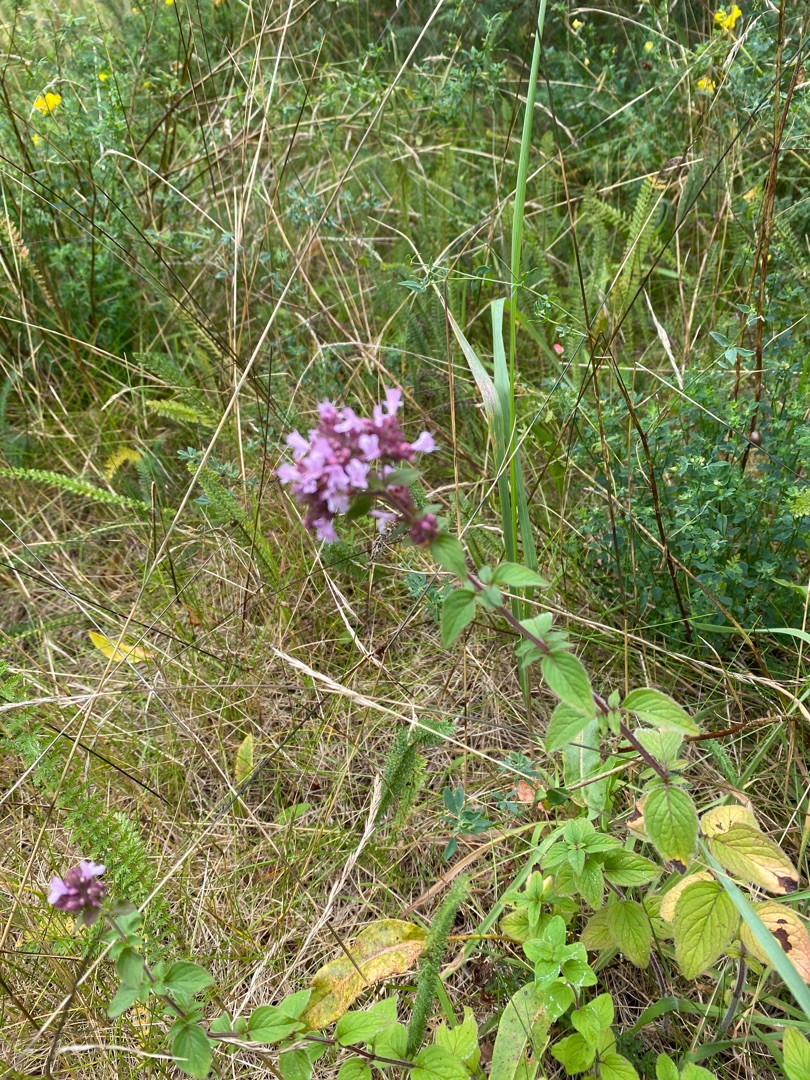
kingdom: Plantae
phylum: Tracheophyta
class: Magnoliopsida
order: Lamiales
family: Lamiaceae
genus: Origanum
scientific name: Origanum vulgare
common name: Merian
